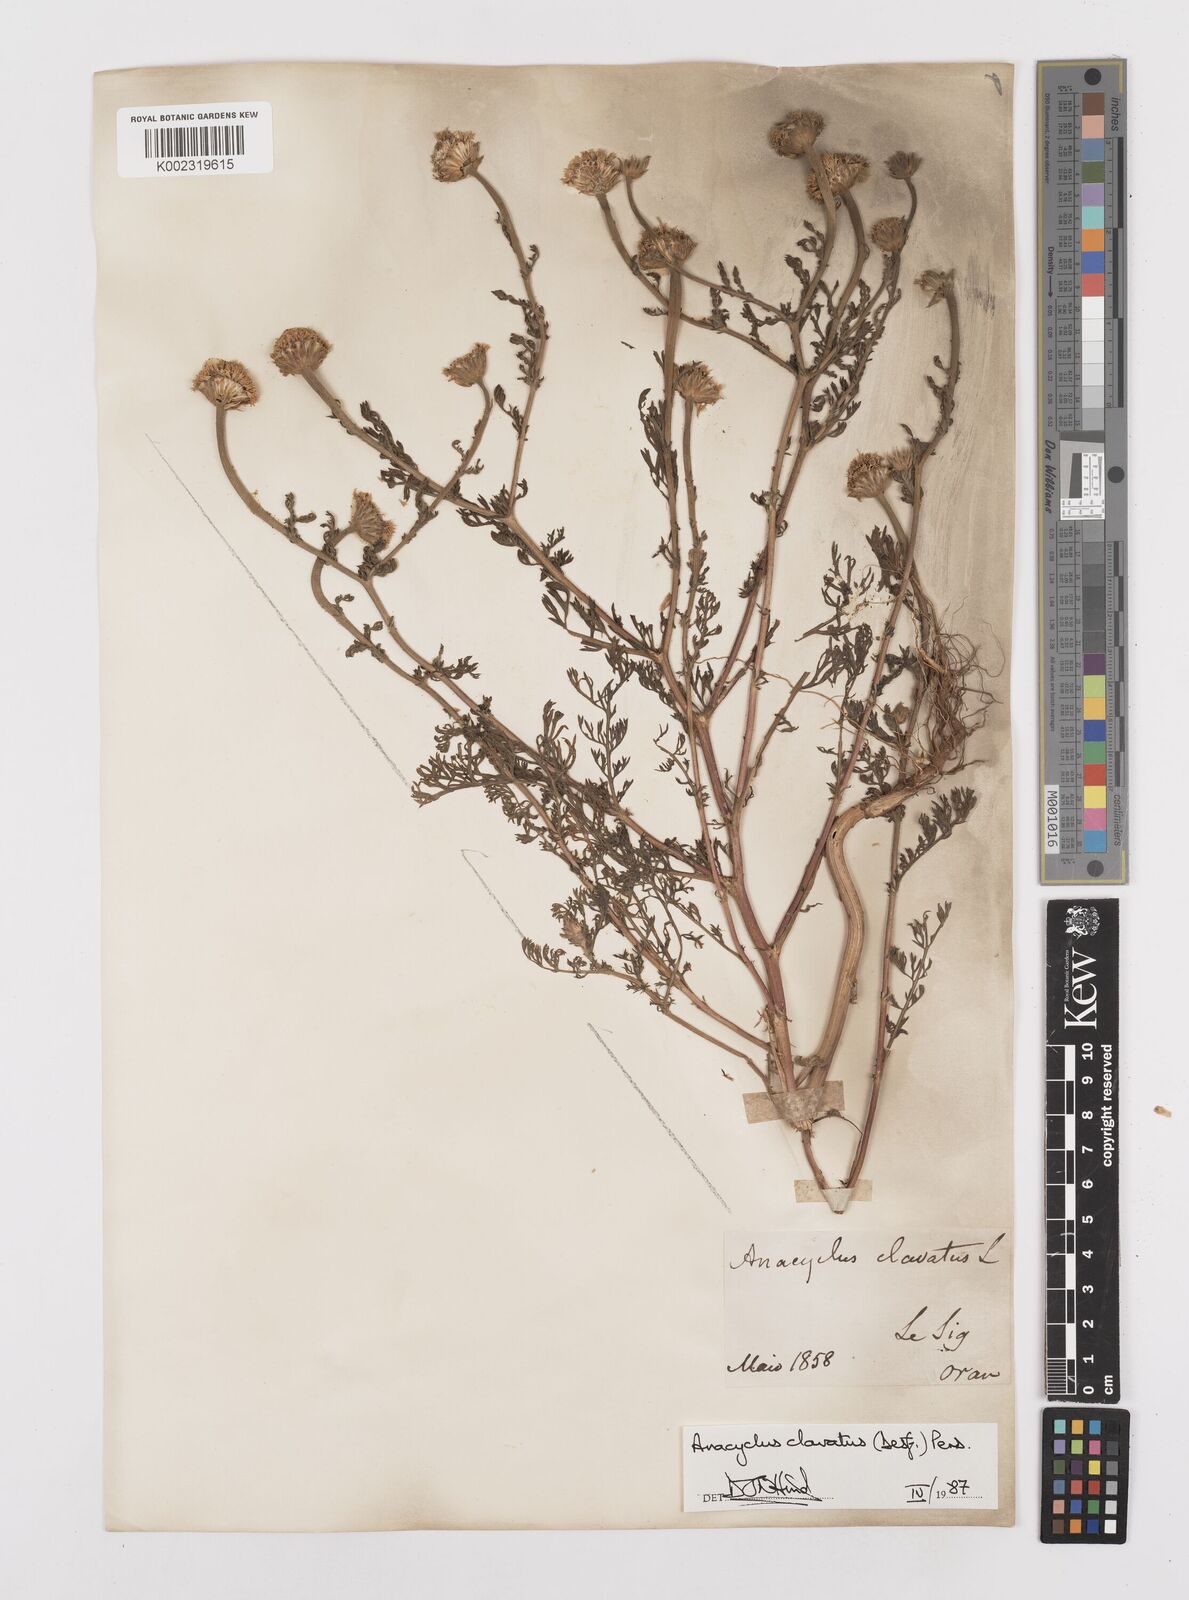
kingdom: Plantae
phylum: Tracheophyta
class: Magnoliopsida
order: Asterales
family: Asteraceae
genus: Anacyclus
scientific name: Anacyclus clavatus
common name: Whitebuttons
